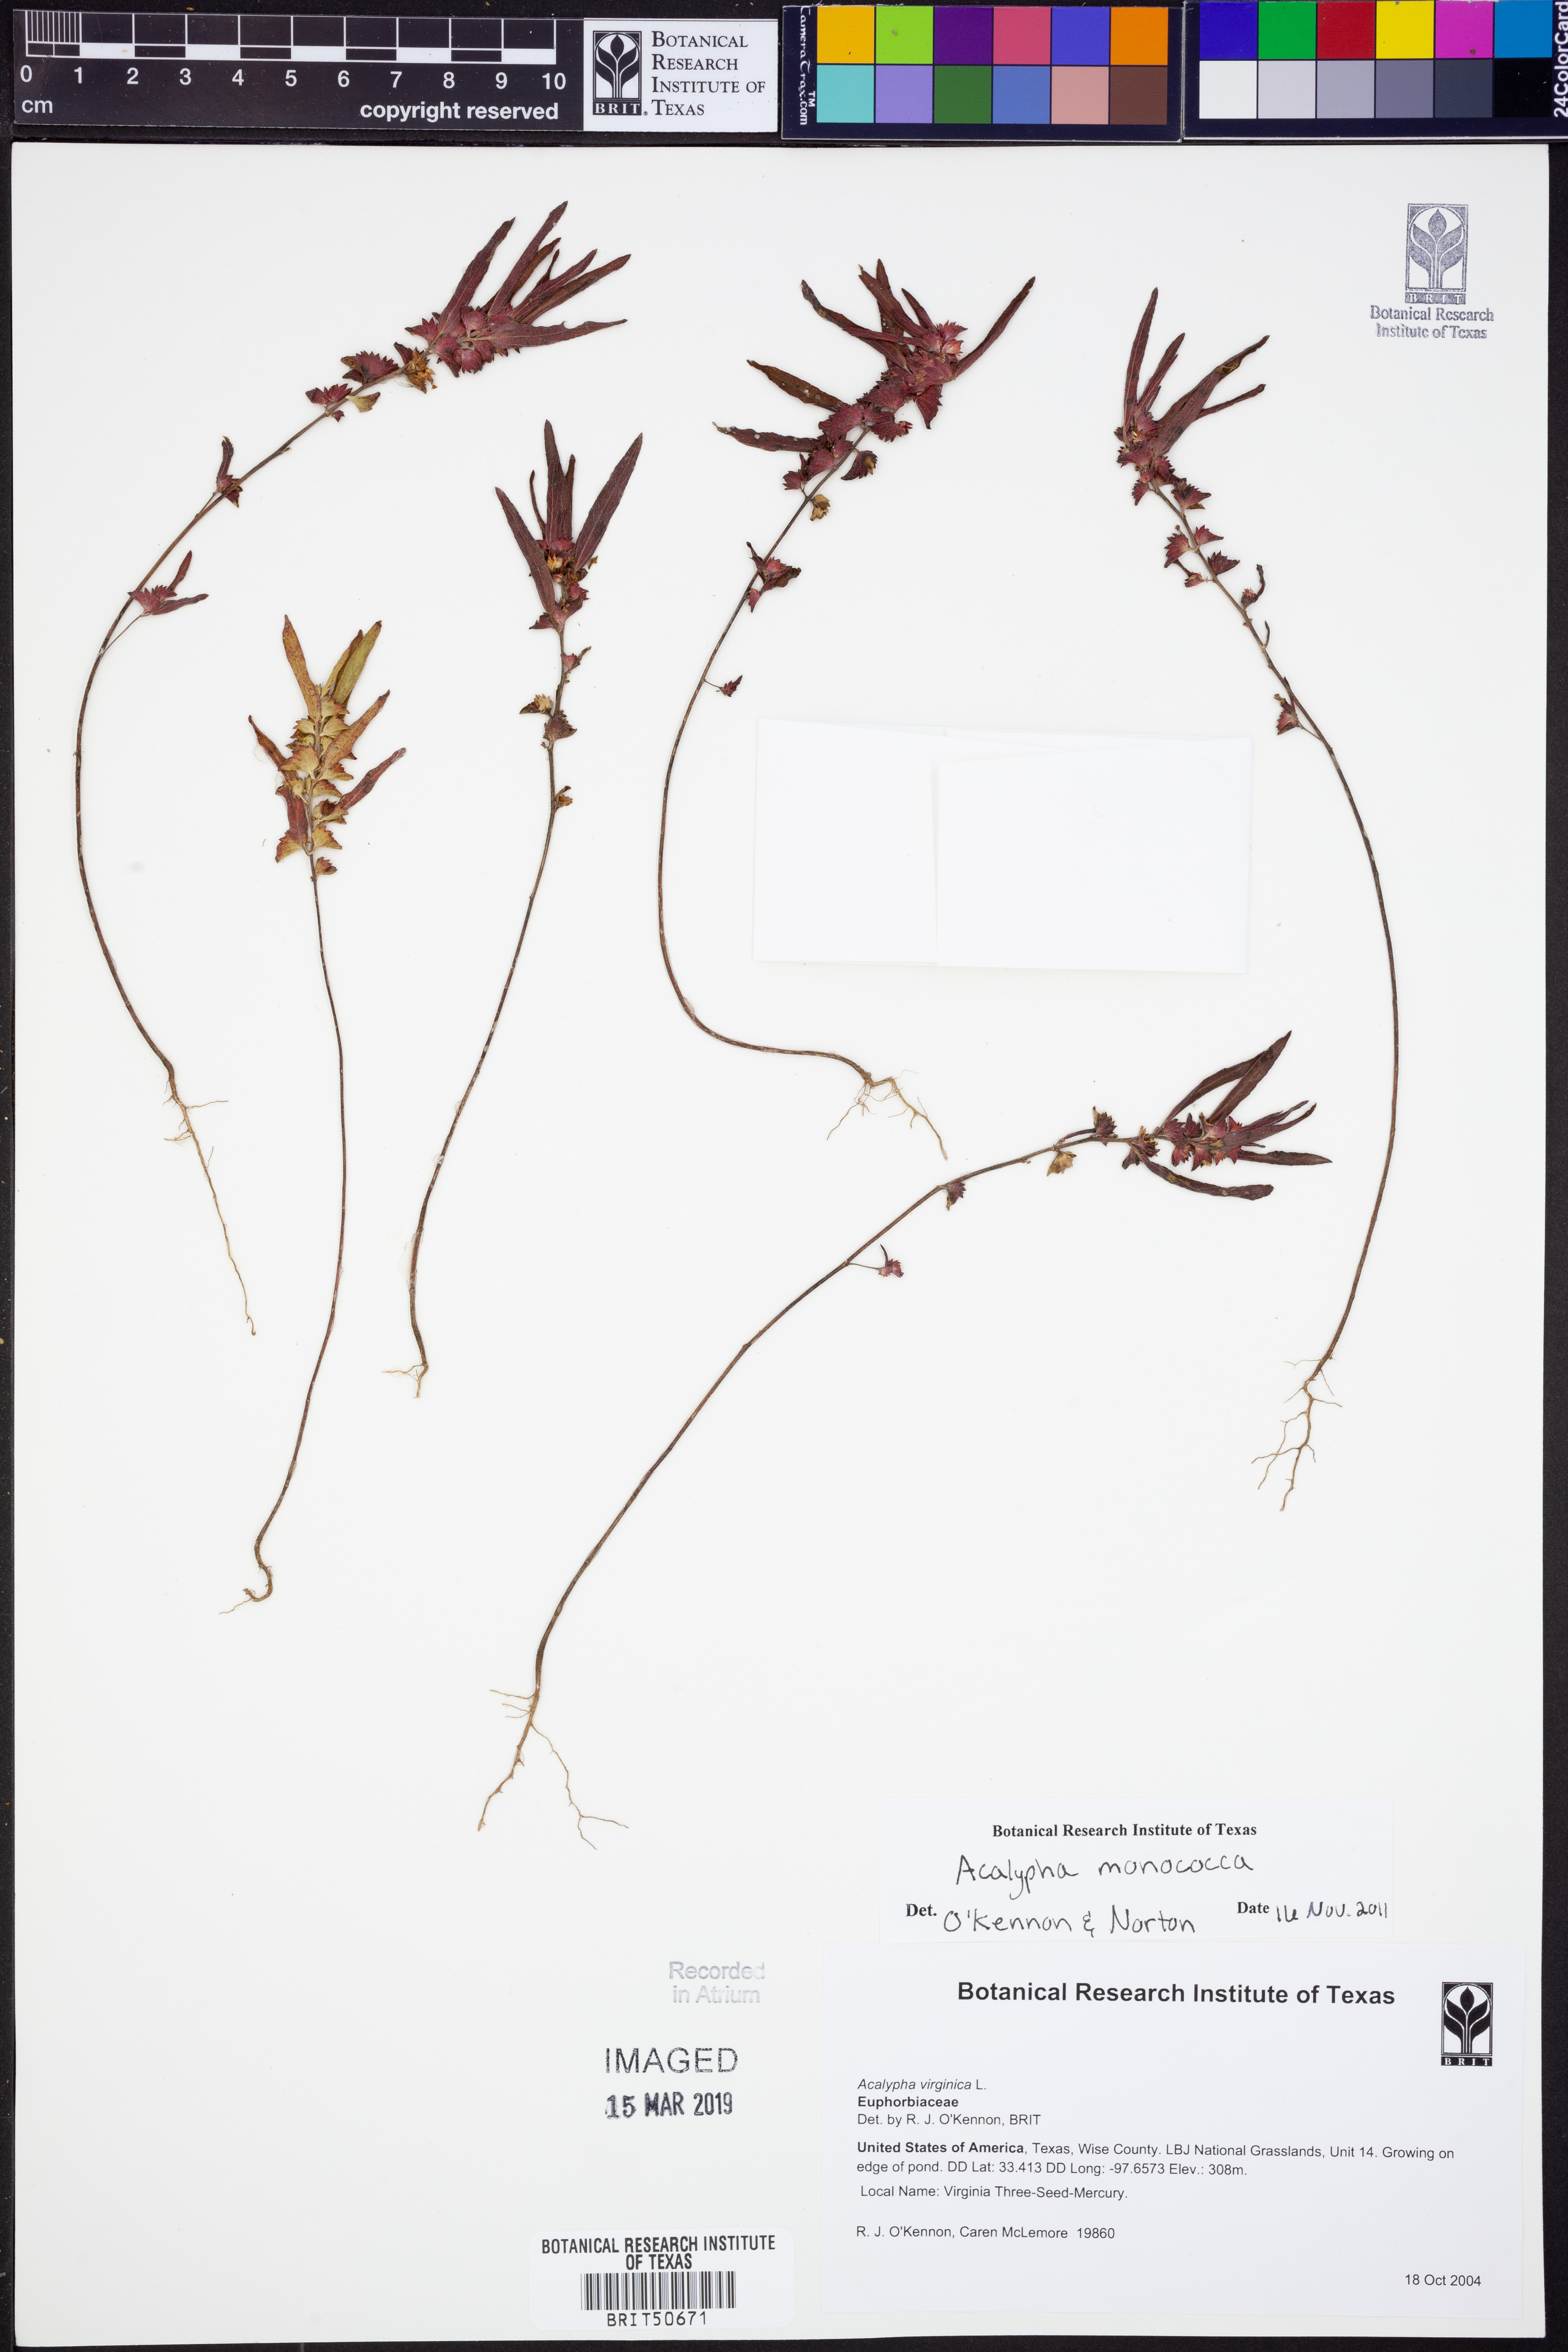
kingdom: Plantae
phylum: Tracheophyta
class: Magnoliopsida
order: Malpighiales
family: Euphorbiaceae
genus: Acalypha
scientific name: Acalypha monococca
